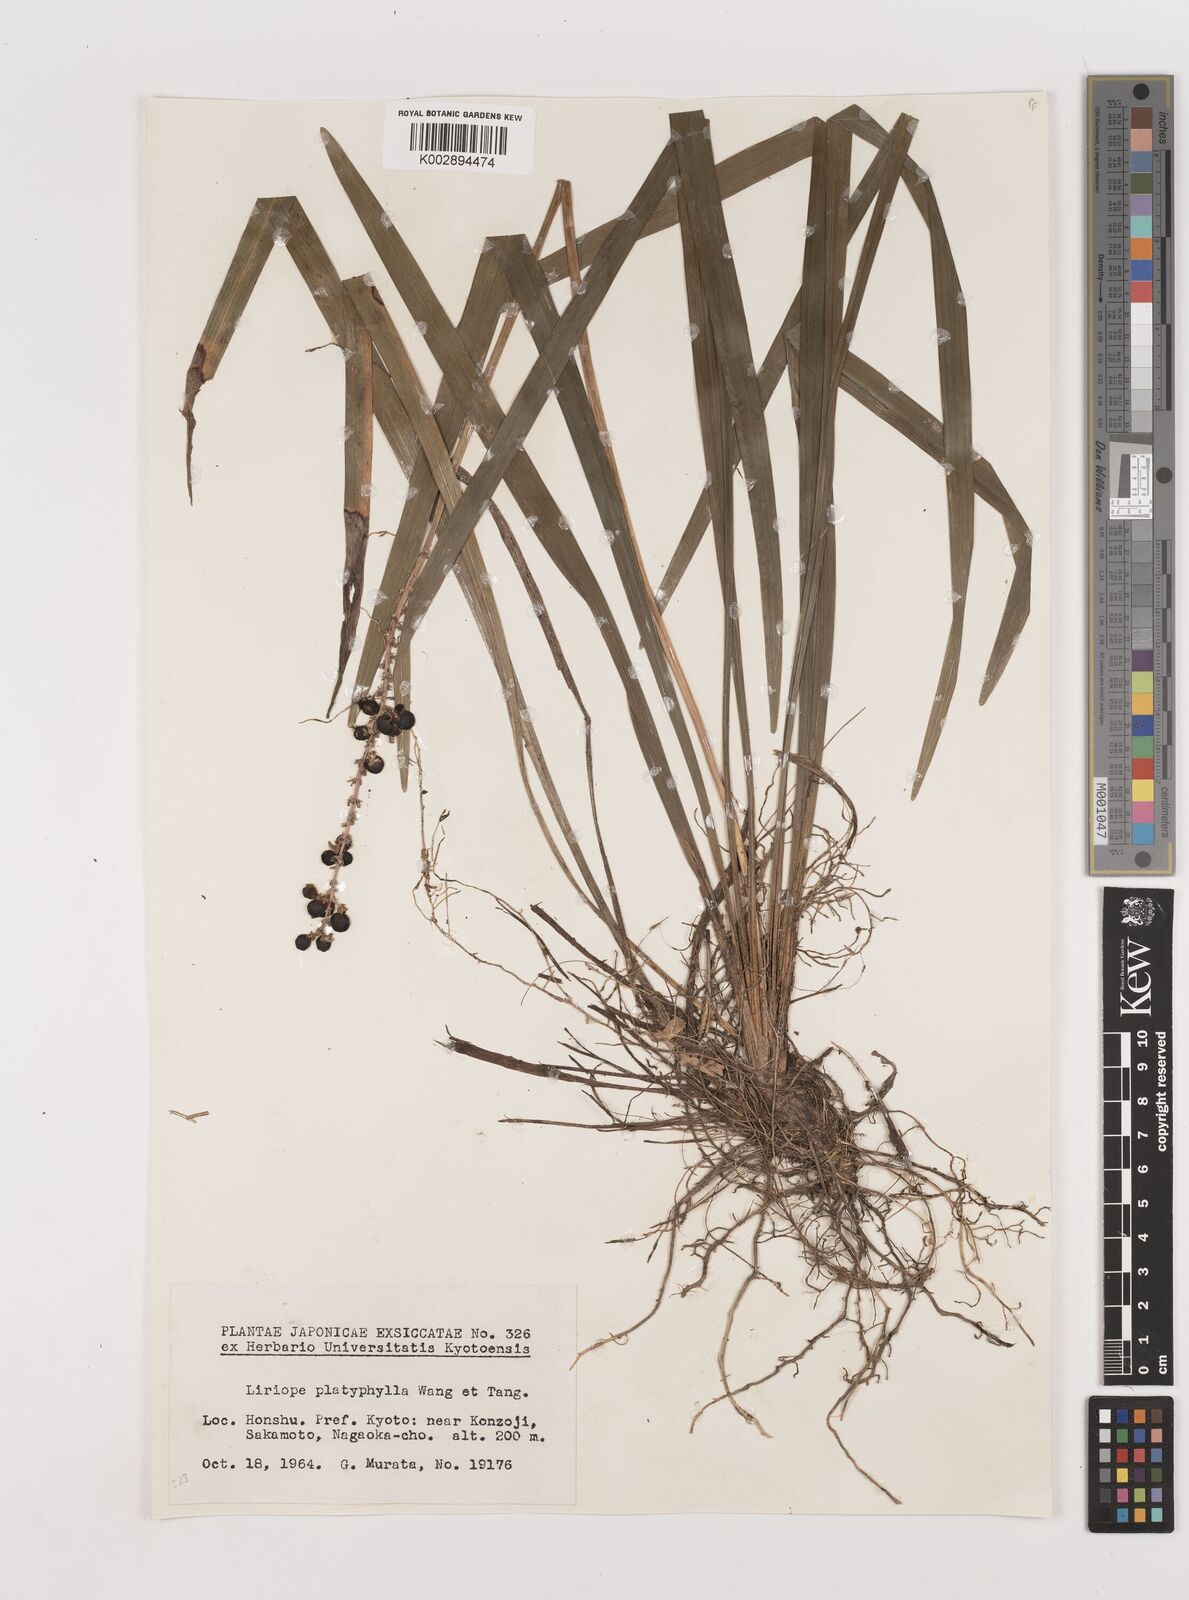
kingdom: Plantae
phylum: Tracheophyta
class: Liliopsida
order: Asparagales
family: Asparagaceae
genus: Liriope
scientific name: Liriope muscari
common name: Big blue lilyturf
